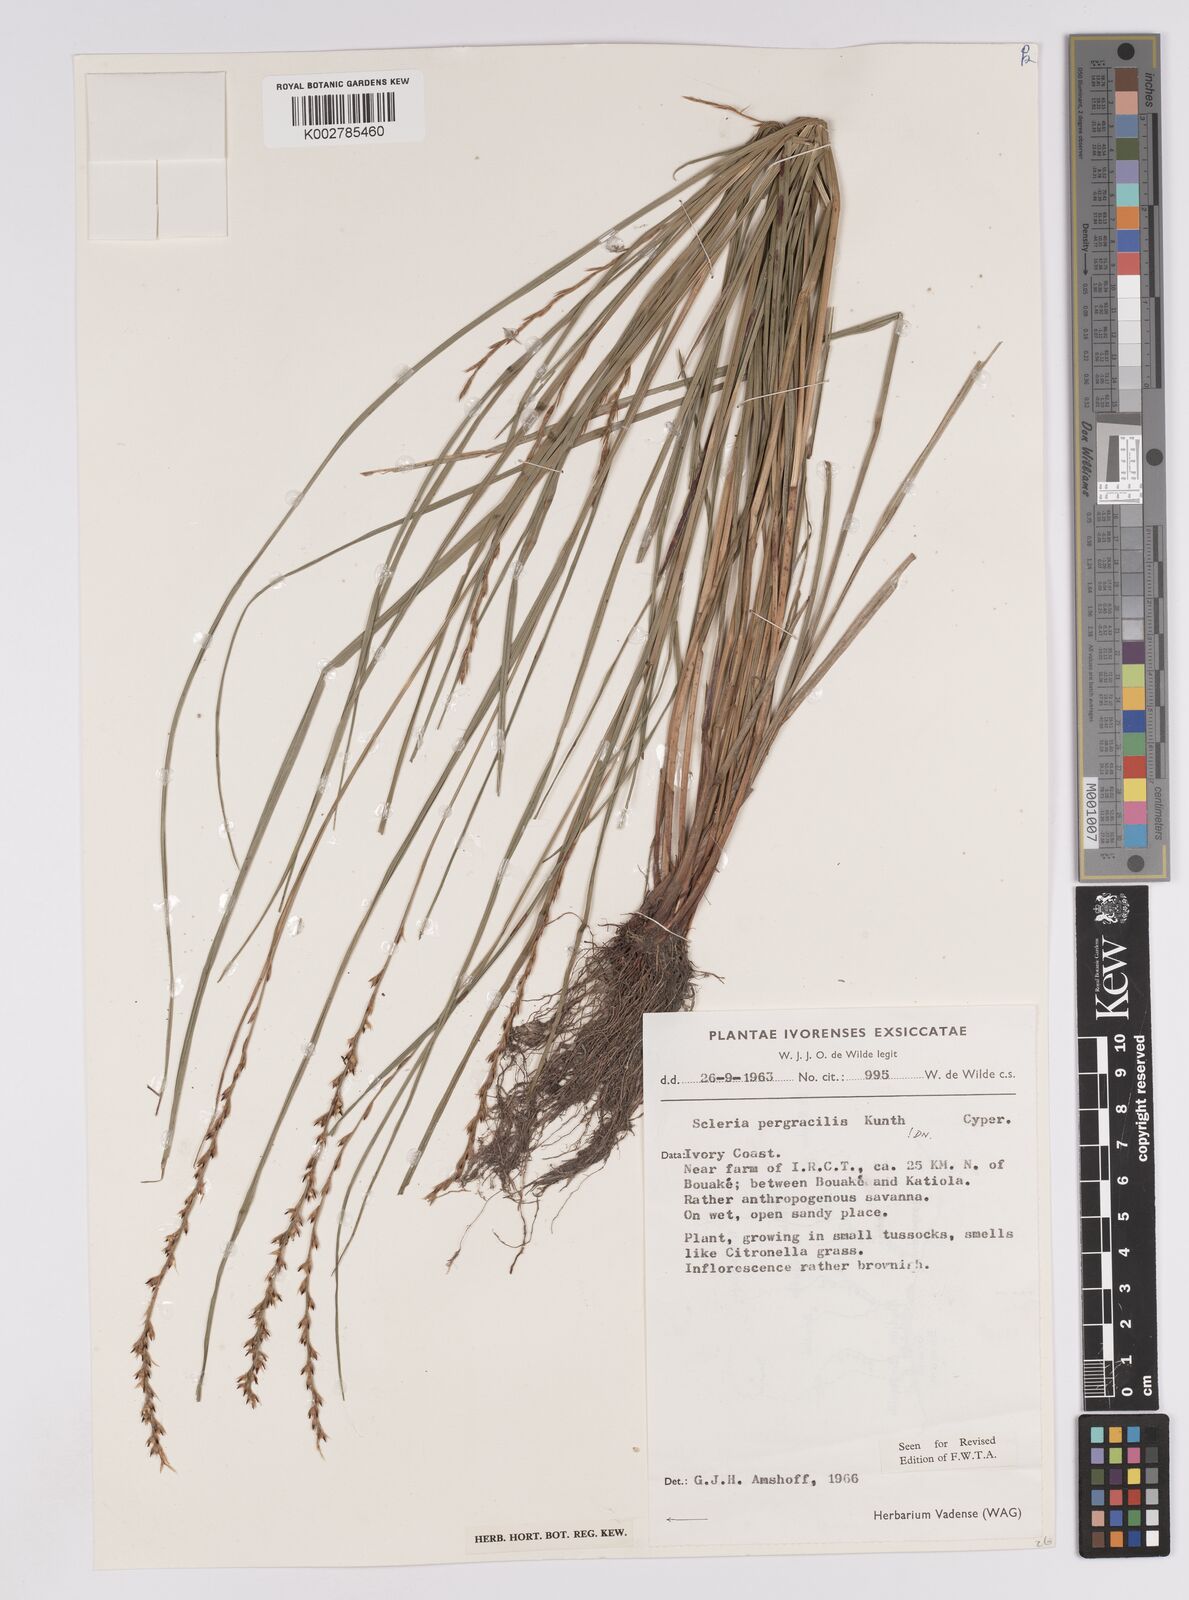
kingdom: Plantae
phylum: Tracheophyta
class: Liliopsida
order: Poales
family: Cyperaceae
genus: Scleria
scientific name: Scleria pergracilis
